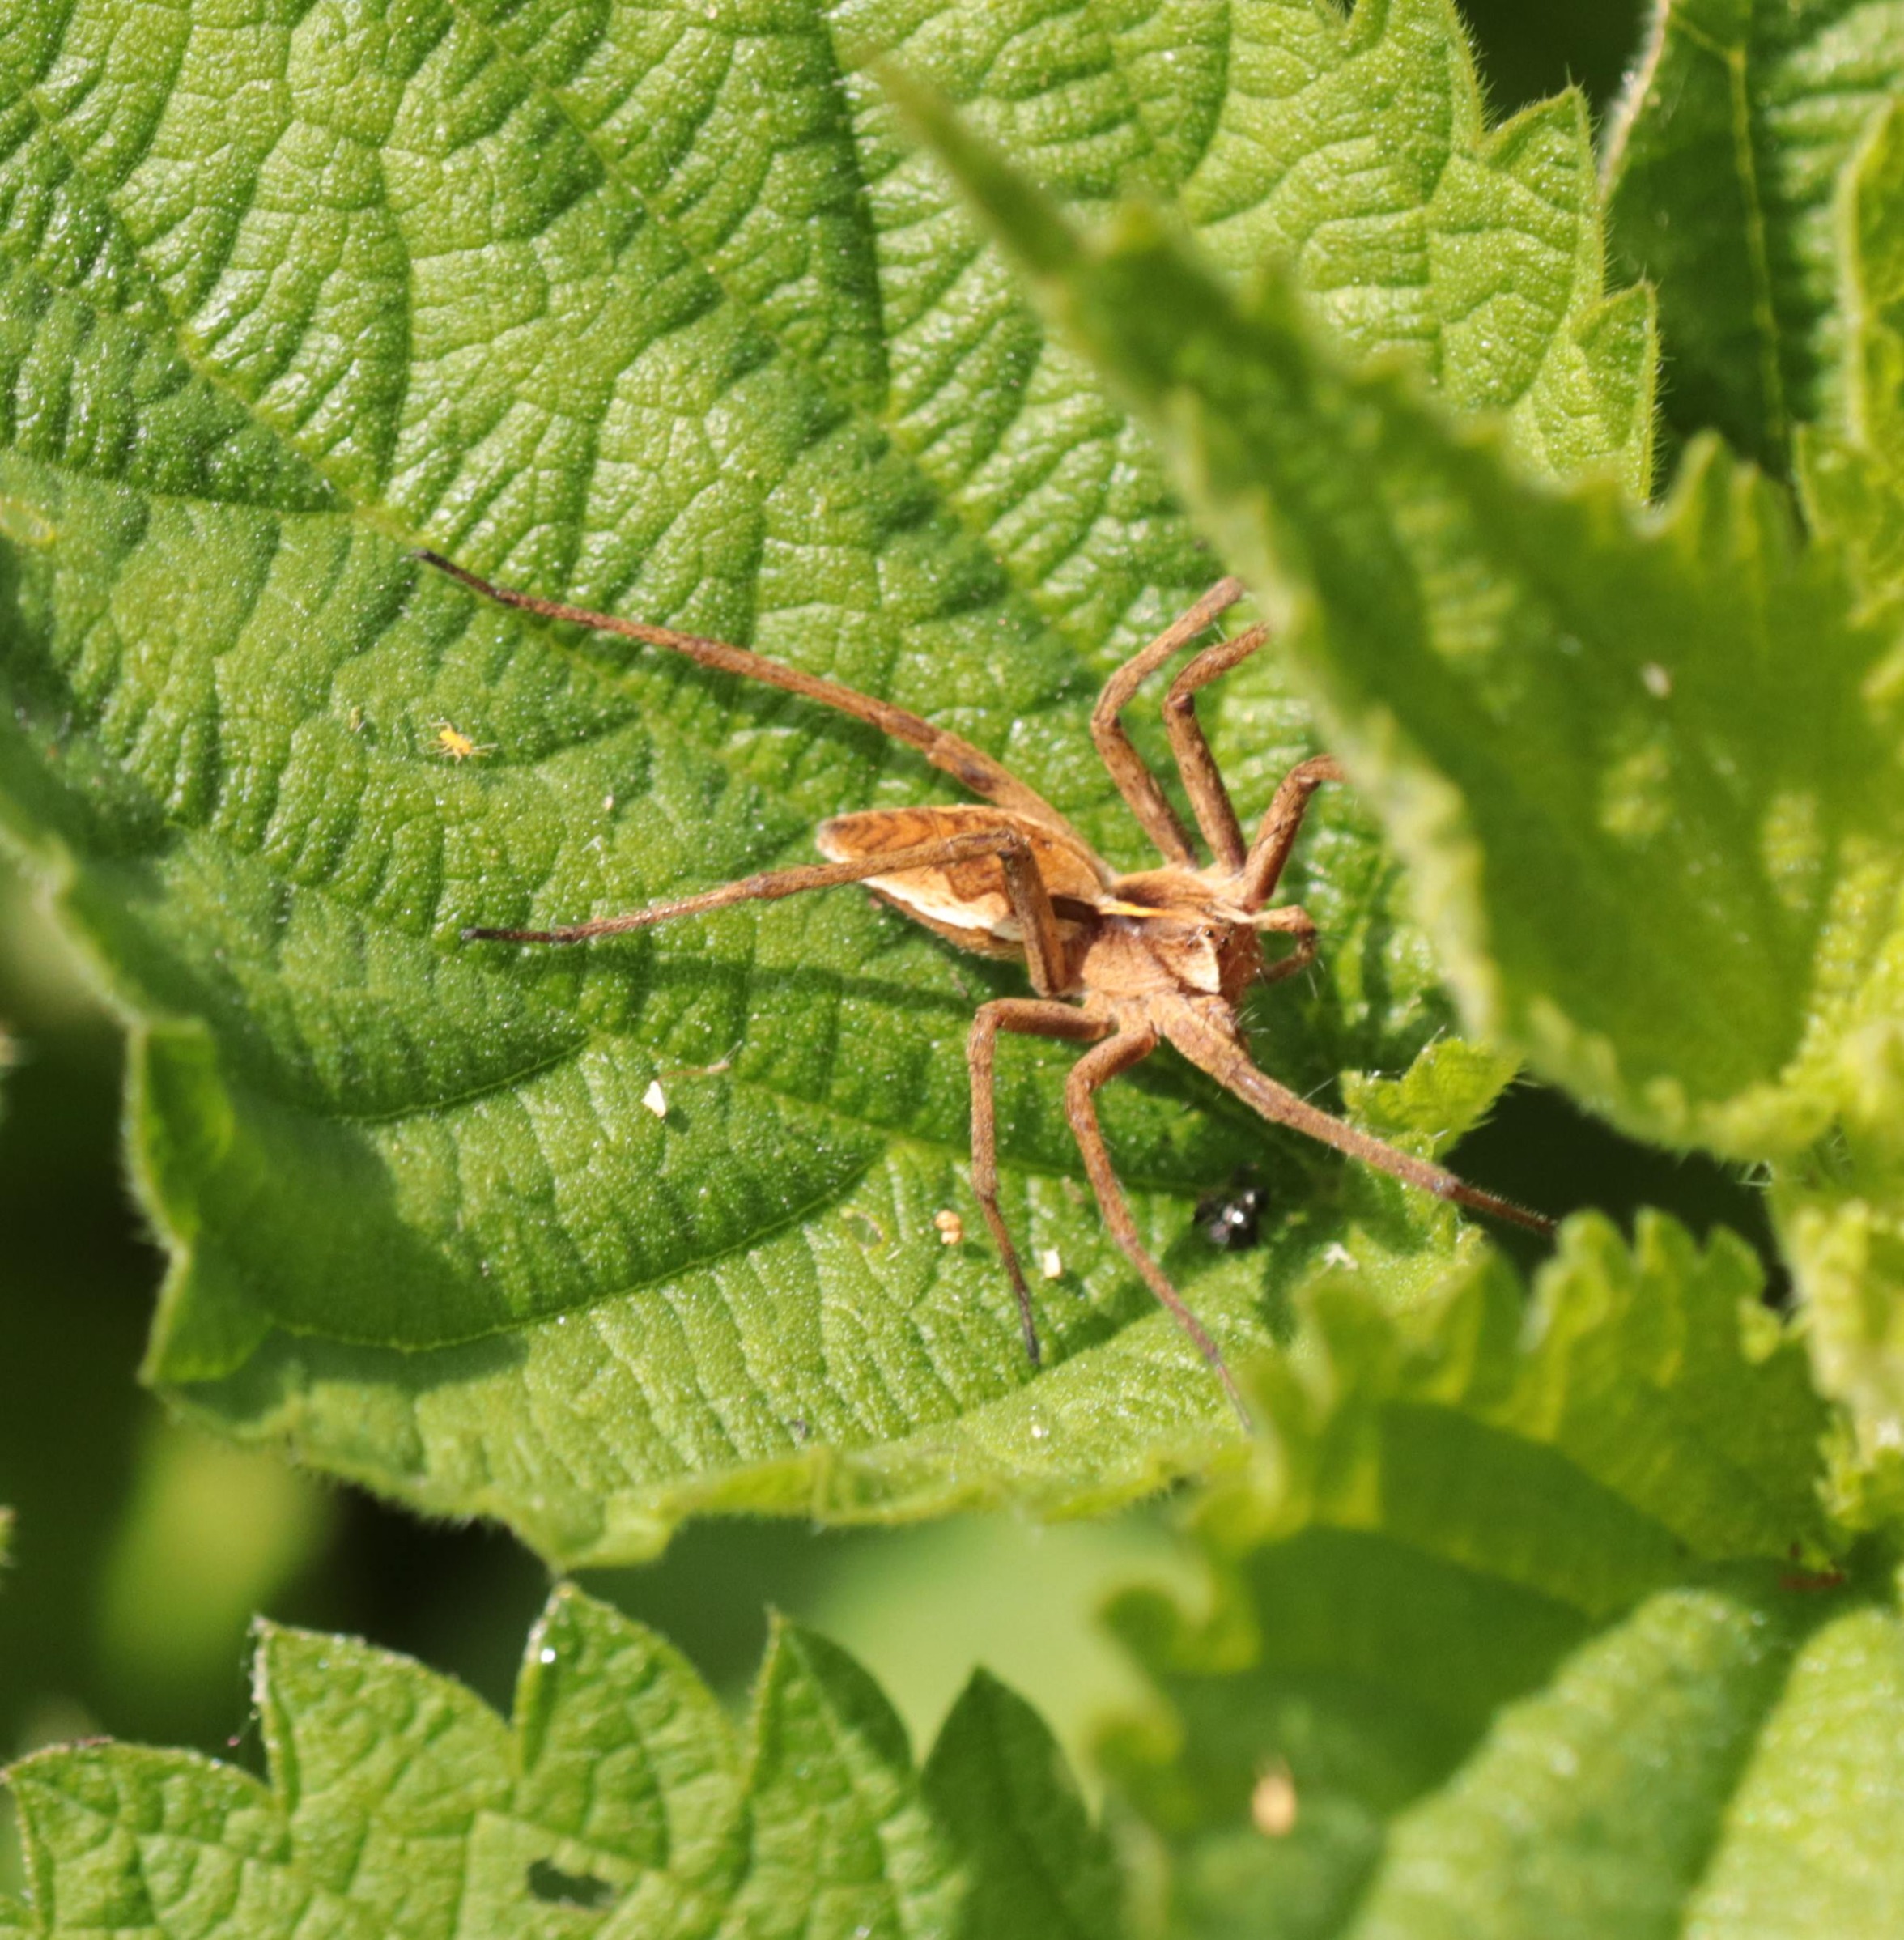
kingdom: Animalia
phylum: Arthropoda
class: Arachnida
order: Araneae
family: Pisauridae
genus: Pisaura
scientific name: Pisaura mirabilis
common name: Almindelig rovedderkop
